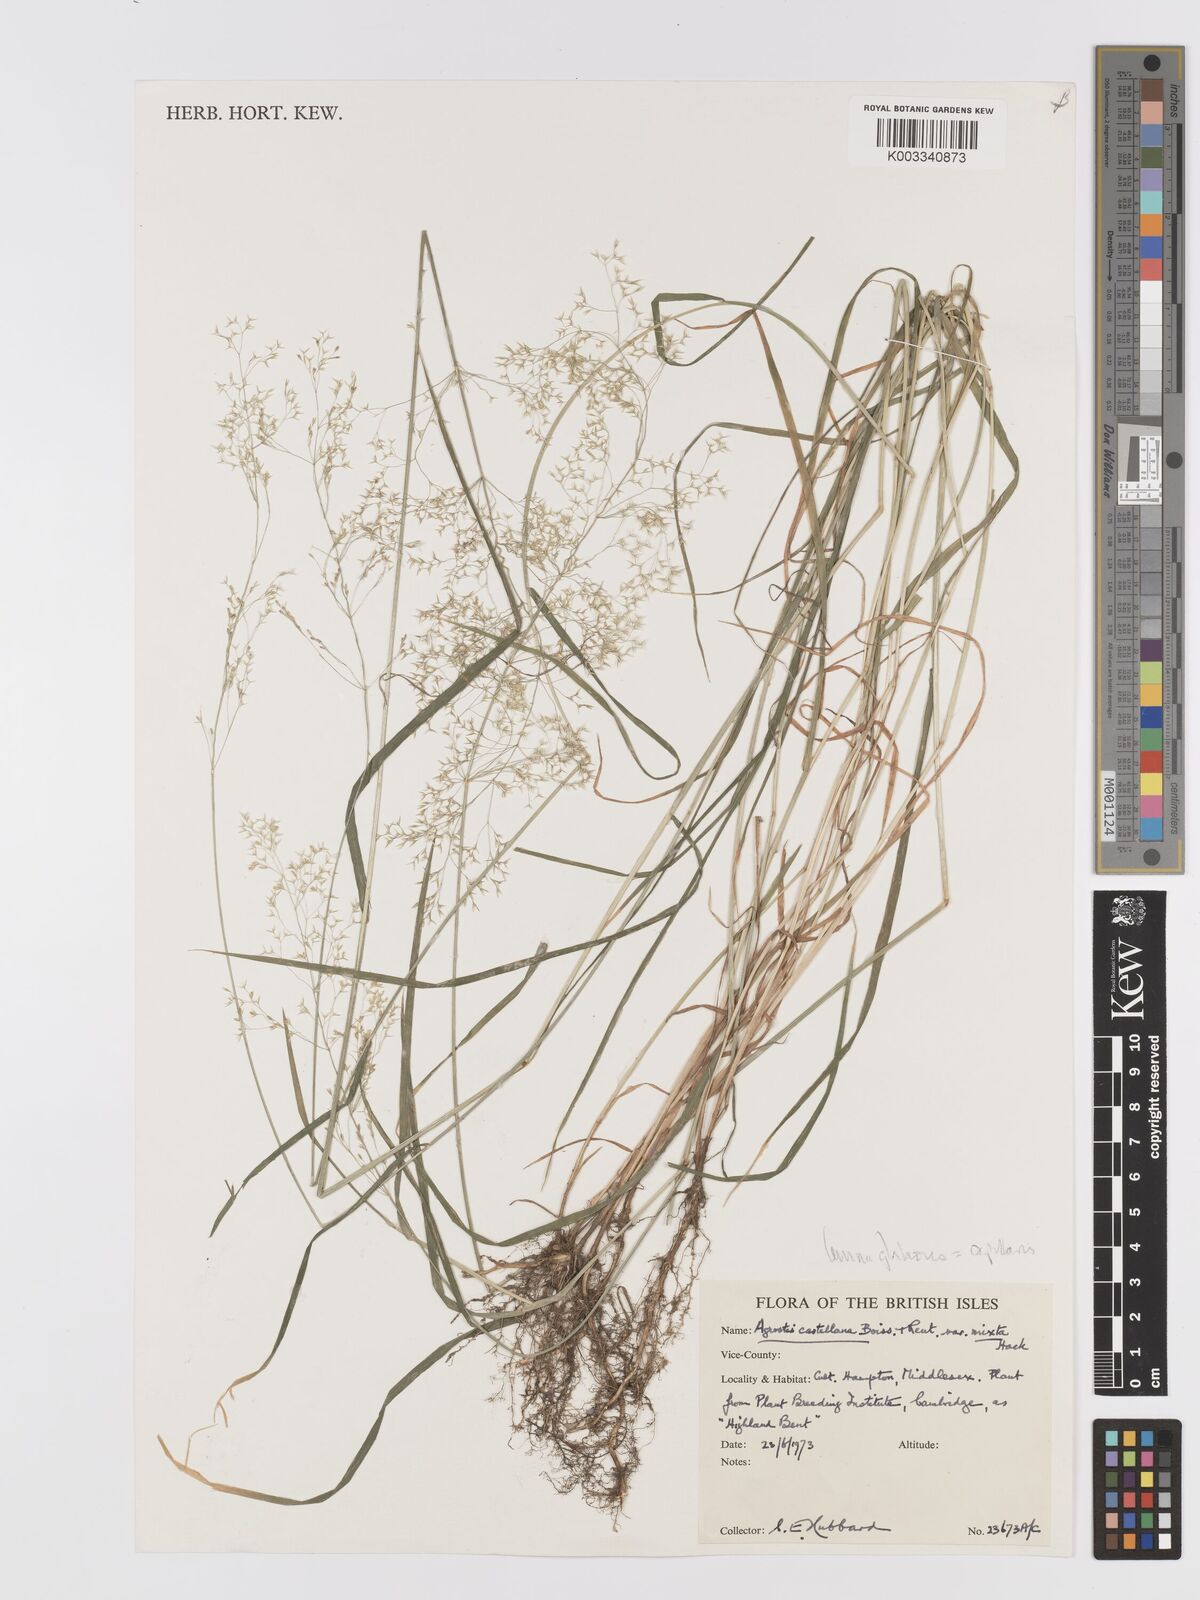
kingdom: Plantae
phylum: Tracheophyta
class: Liliopsida
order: Poales
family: Poaceae
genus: Agrostis
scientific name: Agrostis capillaris
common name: Colonial bentgrass
